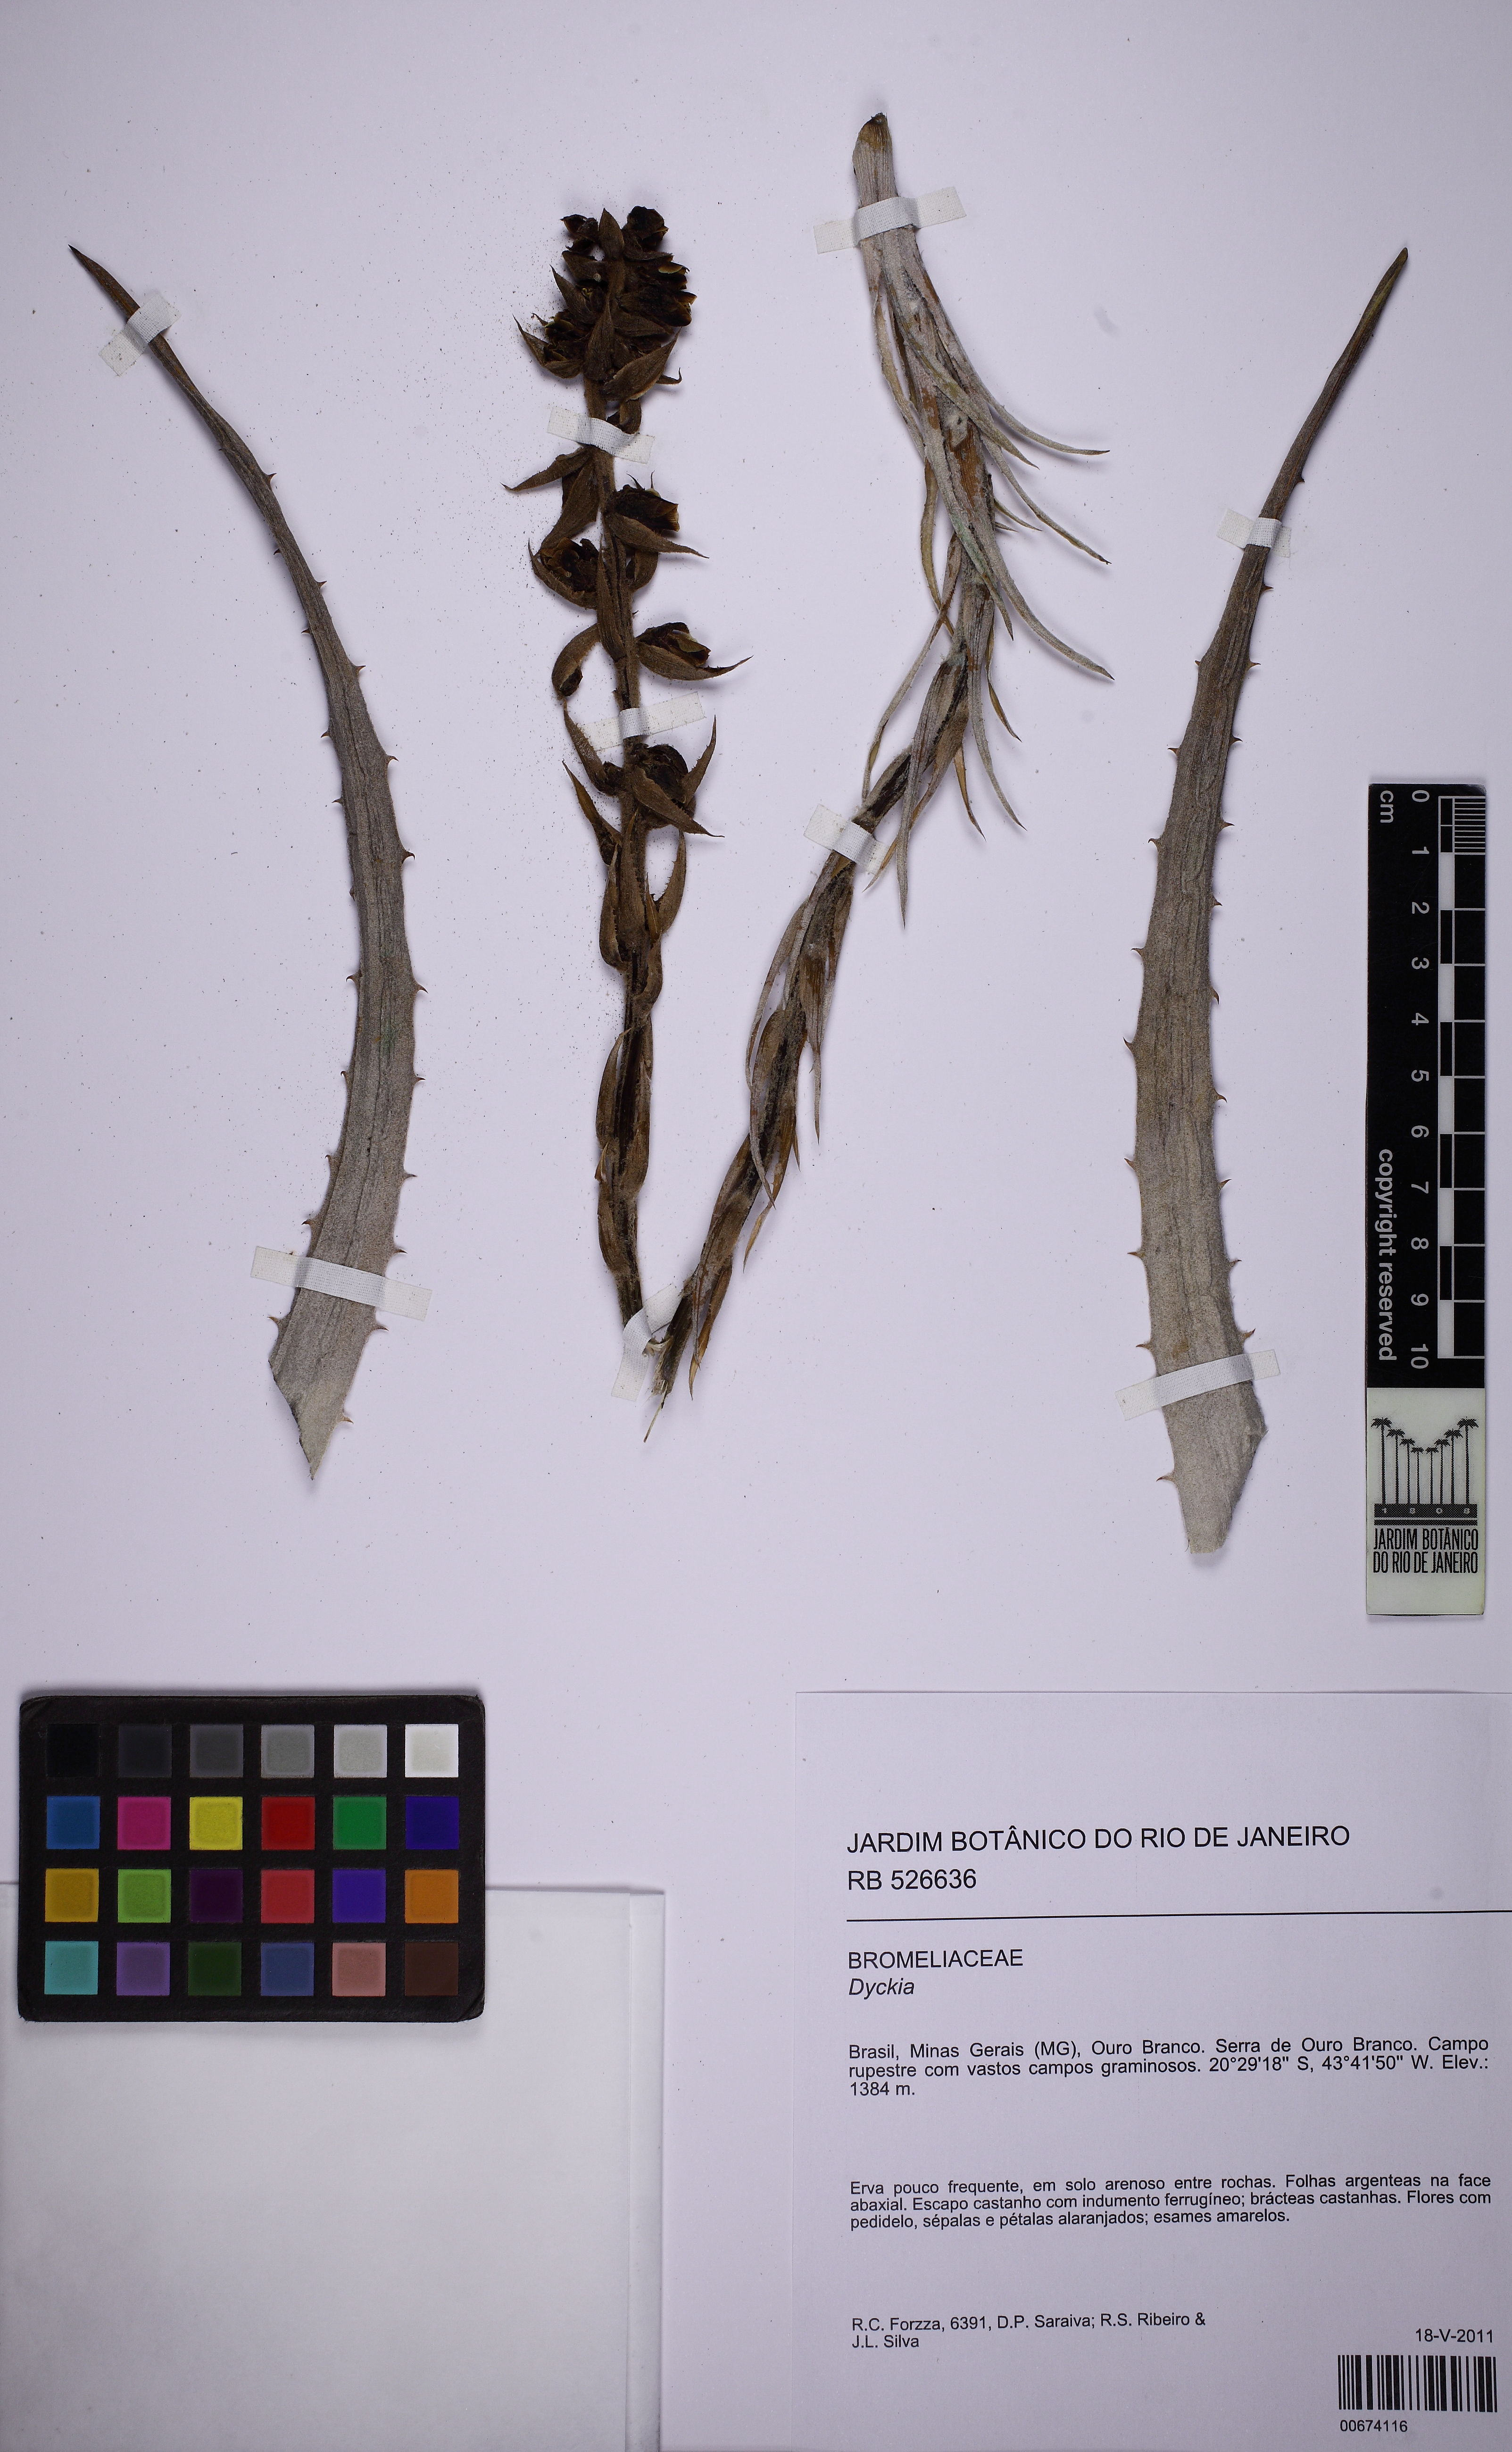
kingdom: Plantae
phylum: Tracheophyta
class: Liliopsida
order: Poales
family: Bromeliaceae
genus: Dyckia
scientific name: Dyckia trichostachya
